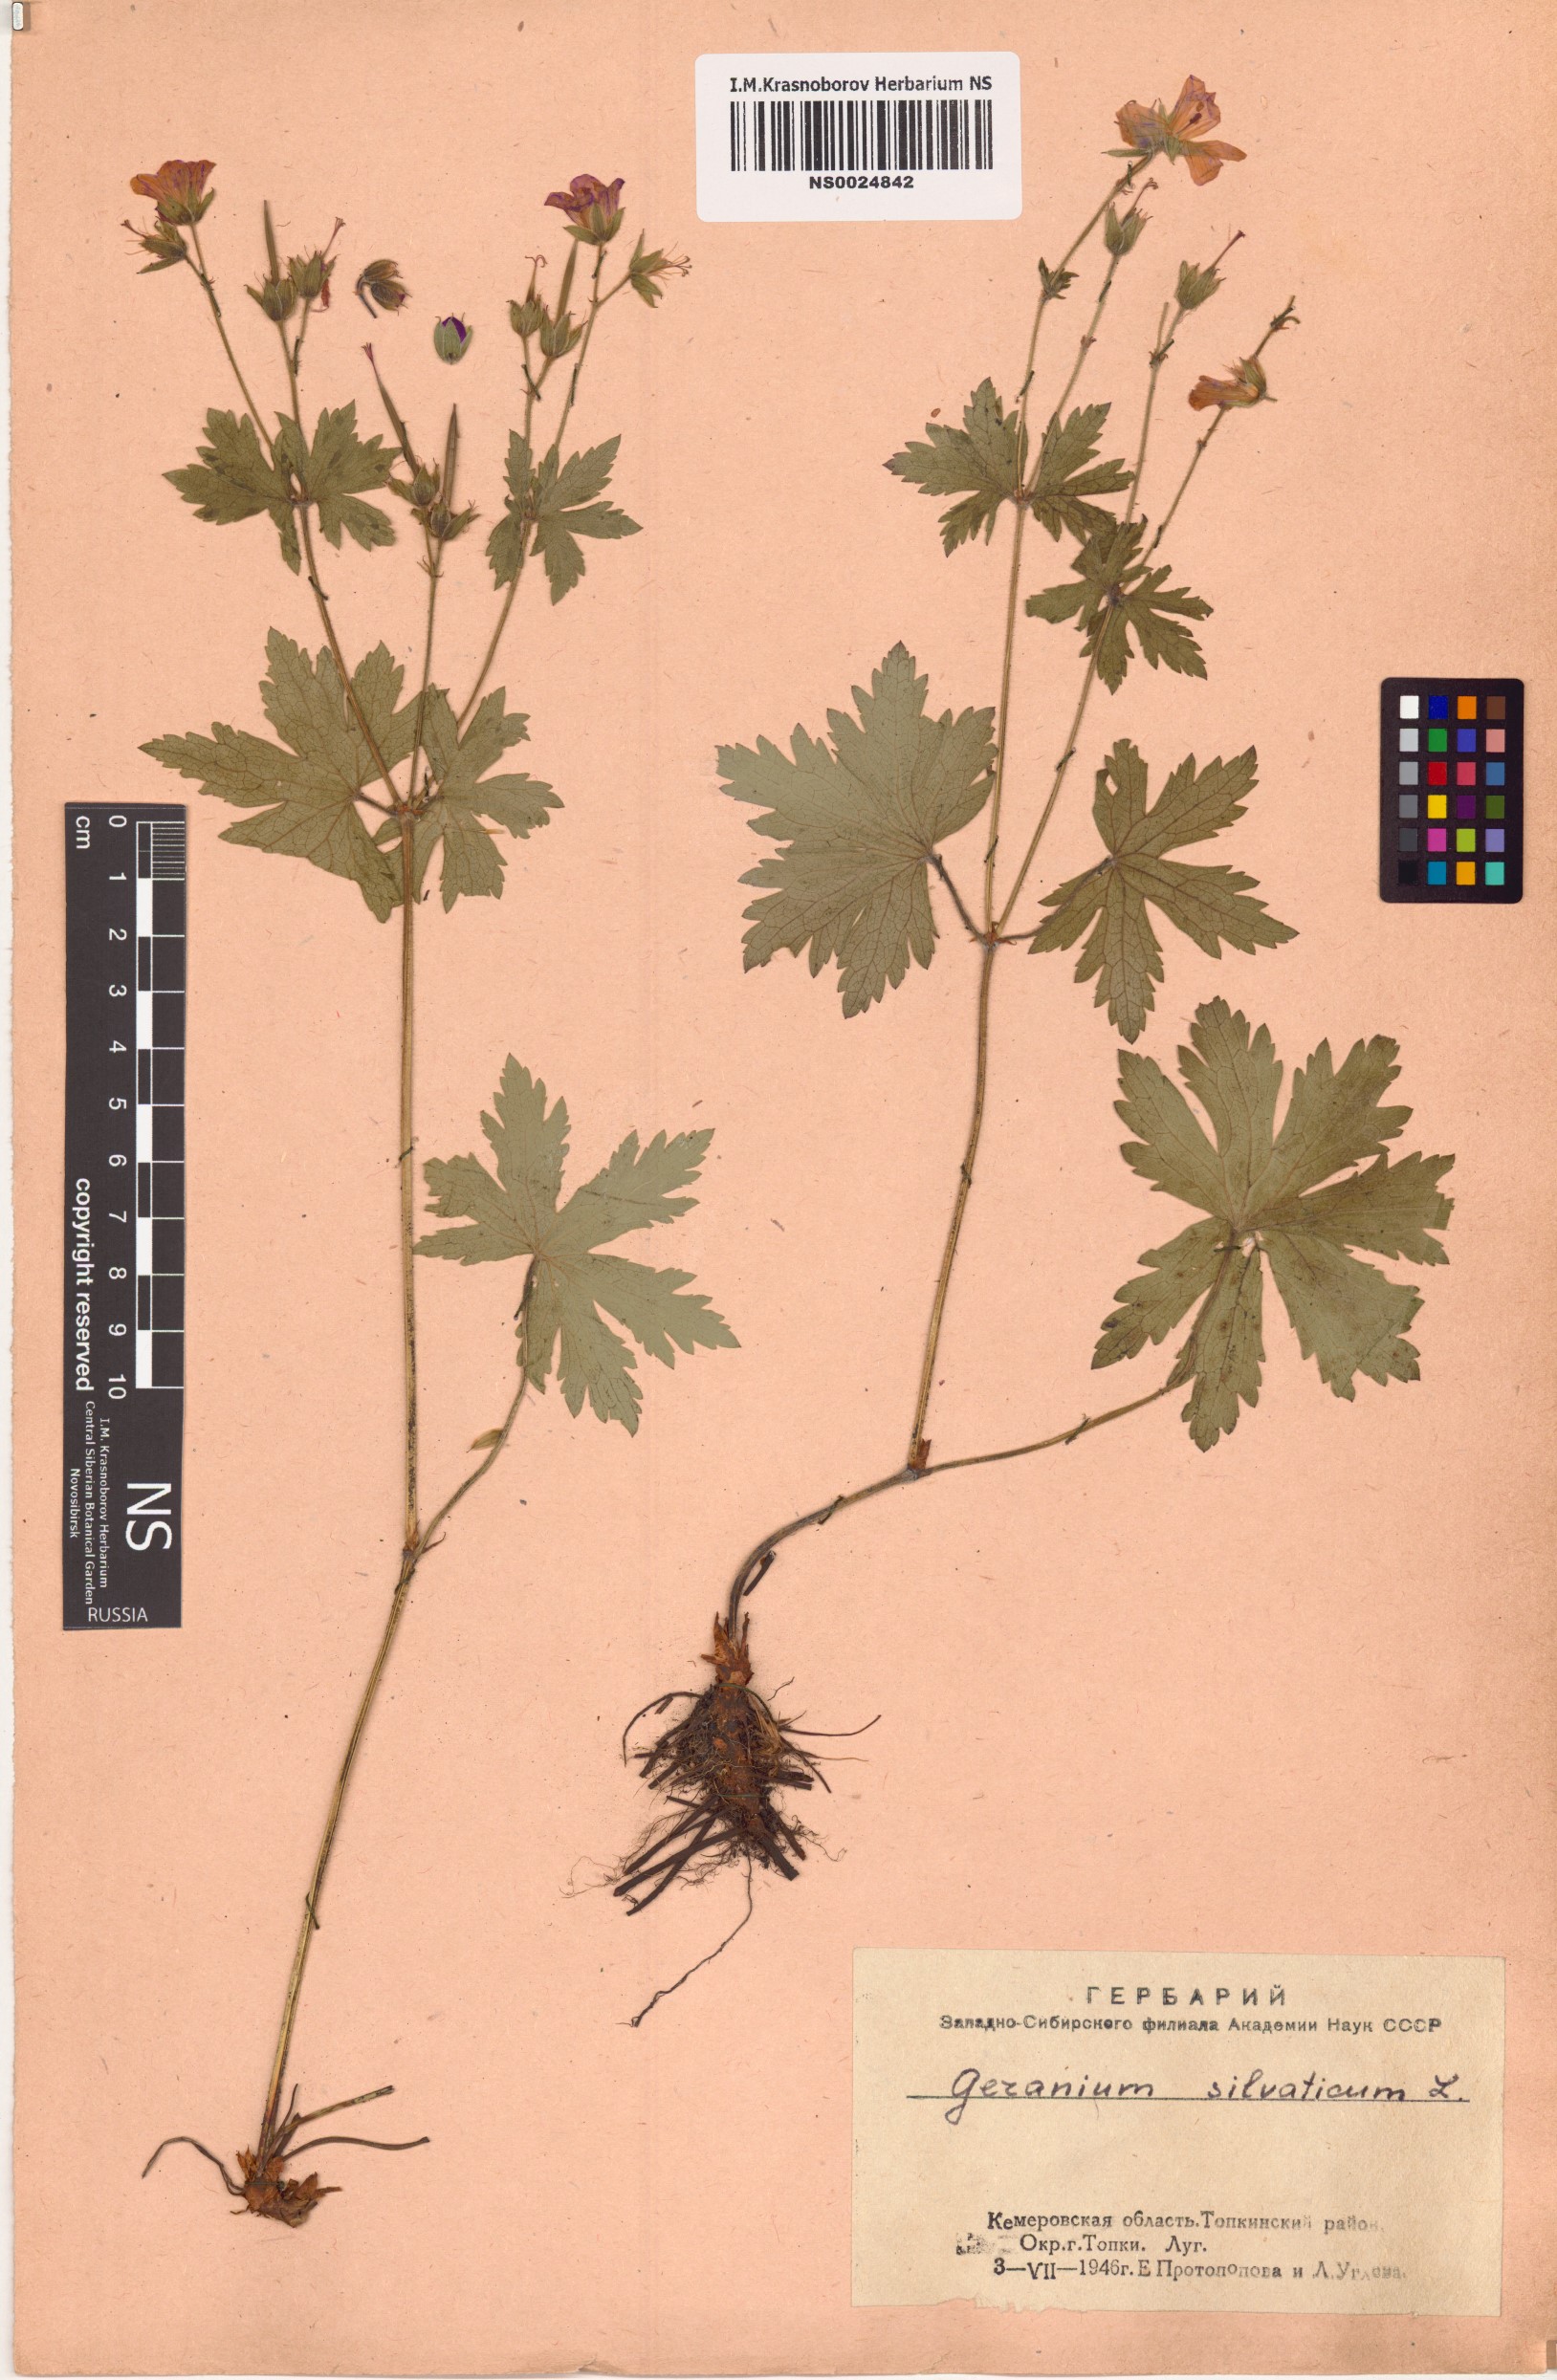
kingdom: Plantae
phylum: Tracheophyta
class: Magnoliopsida
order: Geraniales
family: Geraniaceae
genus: Geranium
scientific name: Geranium sylvaticum
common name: Wood crane's-bill
